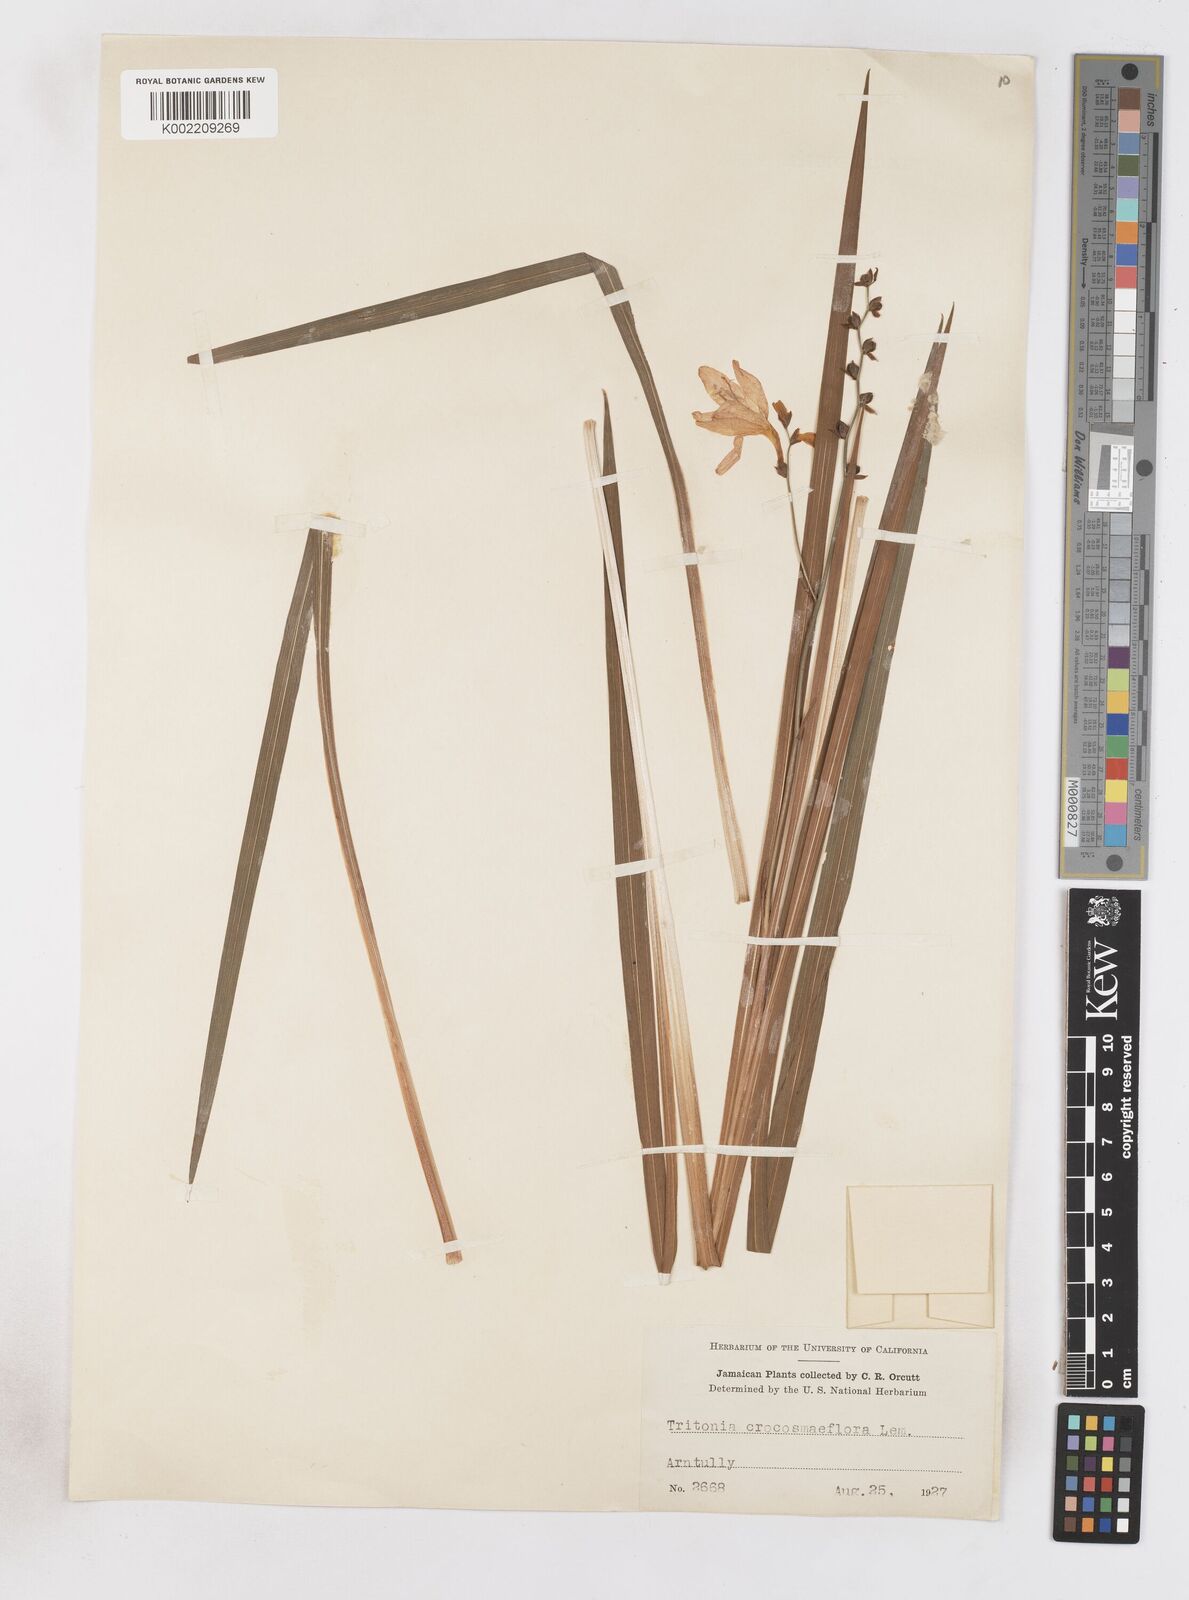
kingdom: Plantae
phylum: Tracheophyta
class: Liliopsida
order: Asparagales
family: Iridaceae
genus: Crocosmia
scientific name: Crocosmia crocosmiiflora
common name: Montbretia
